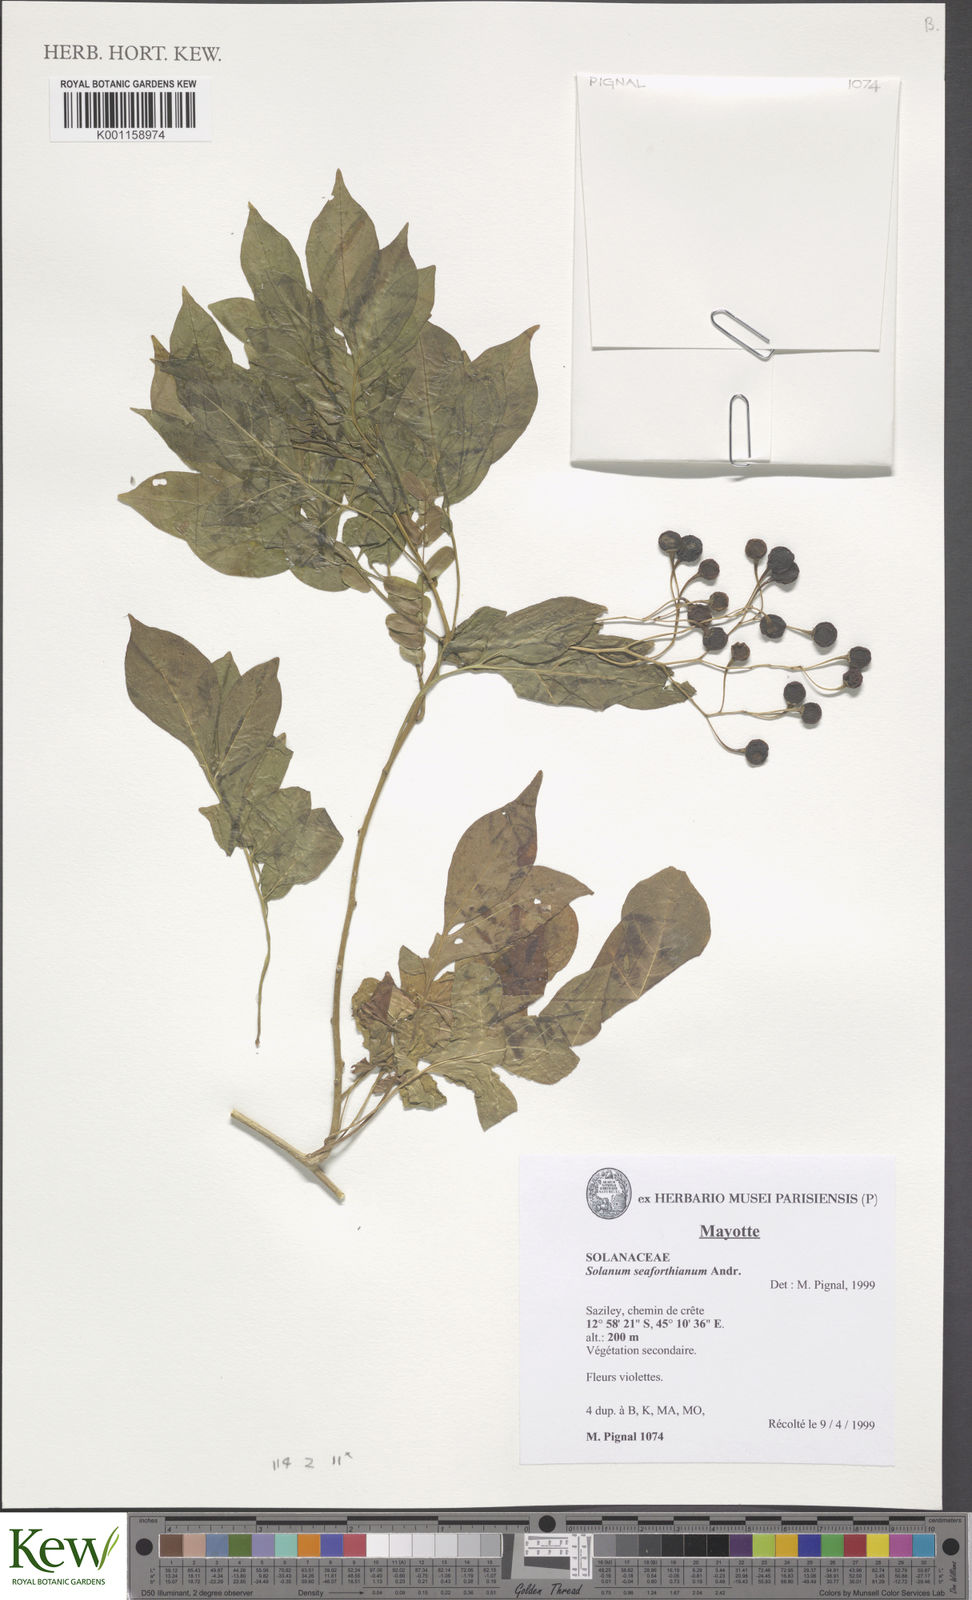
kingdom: Plantae
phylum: Tracheophyta
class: Magnoliopsida
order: Solanales
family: Solanaceae
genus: Solanum
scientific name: Solanum seaforthianum
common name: Brazilian nightshade
